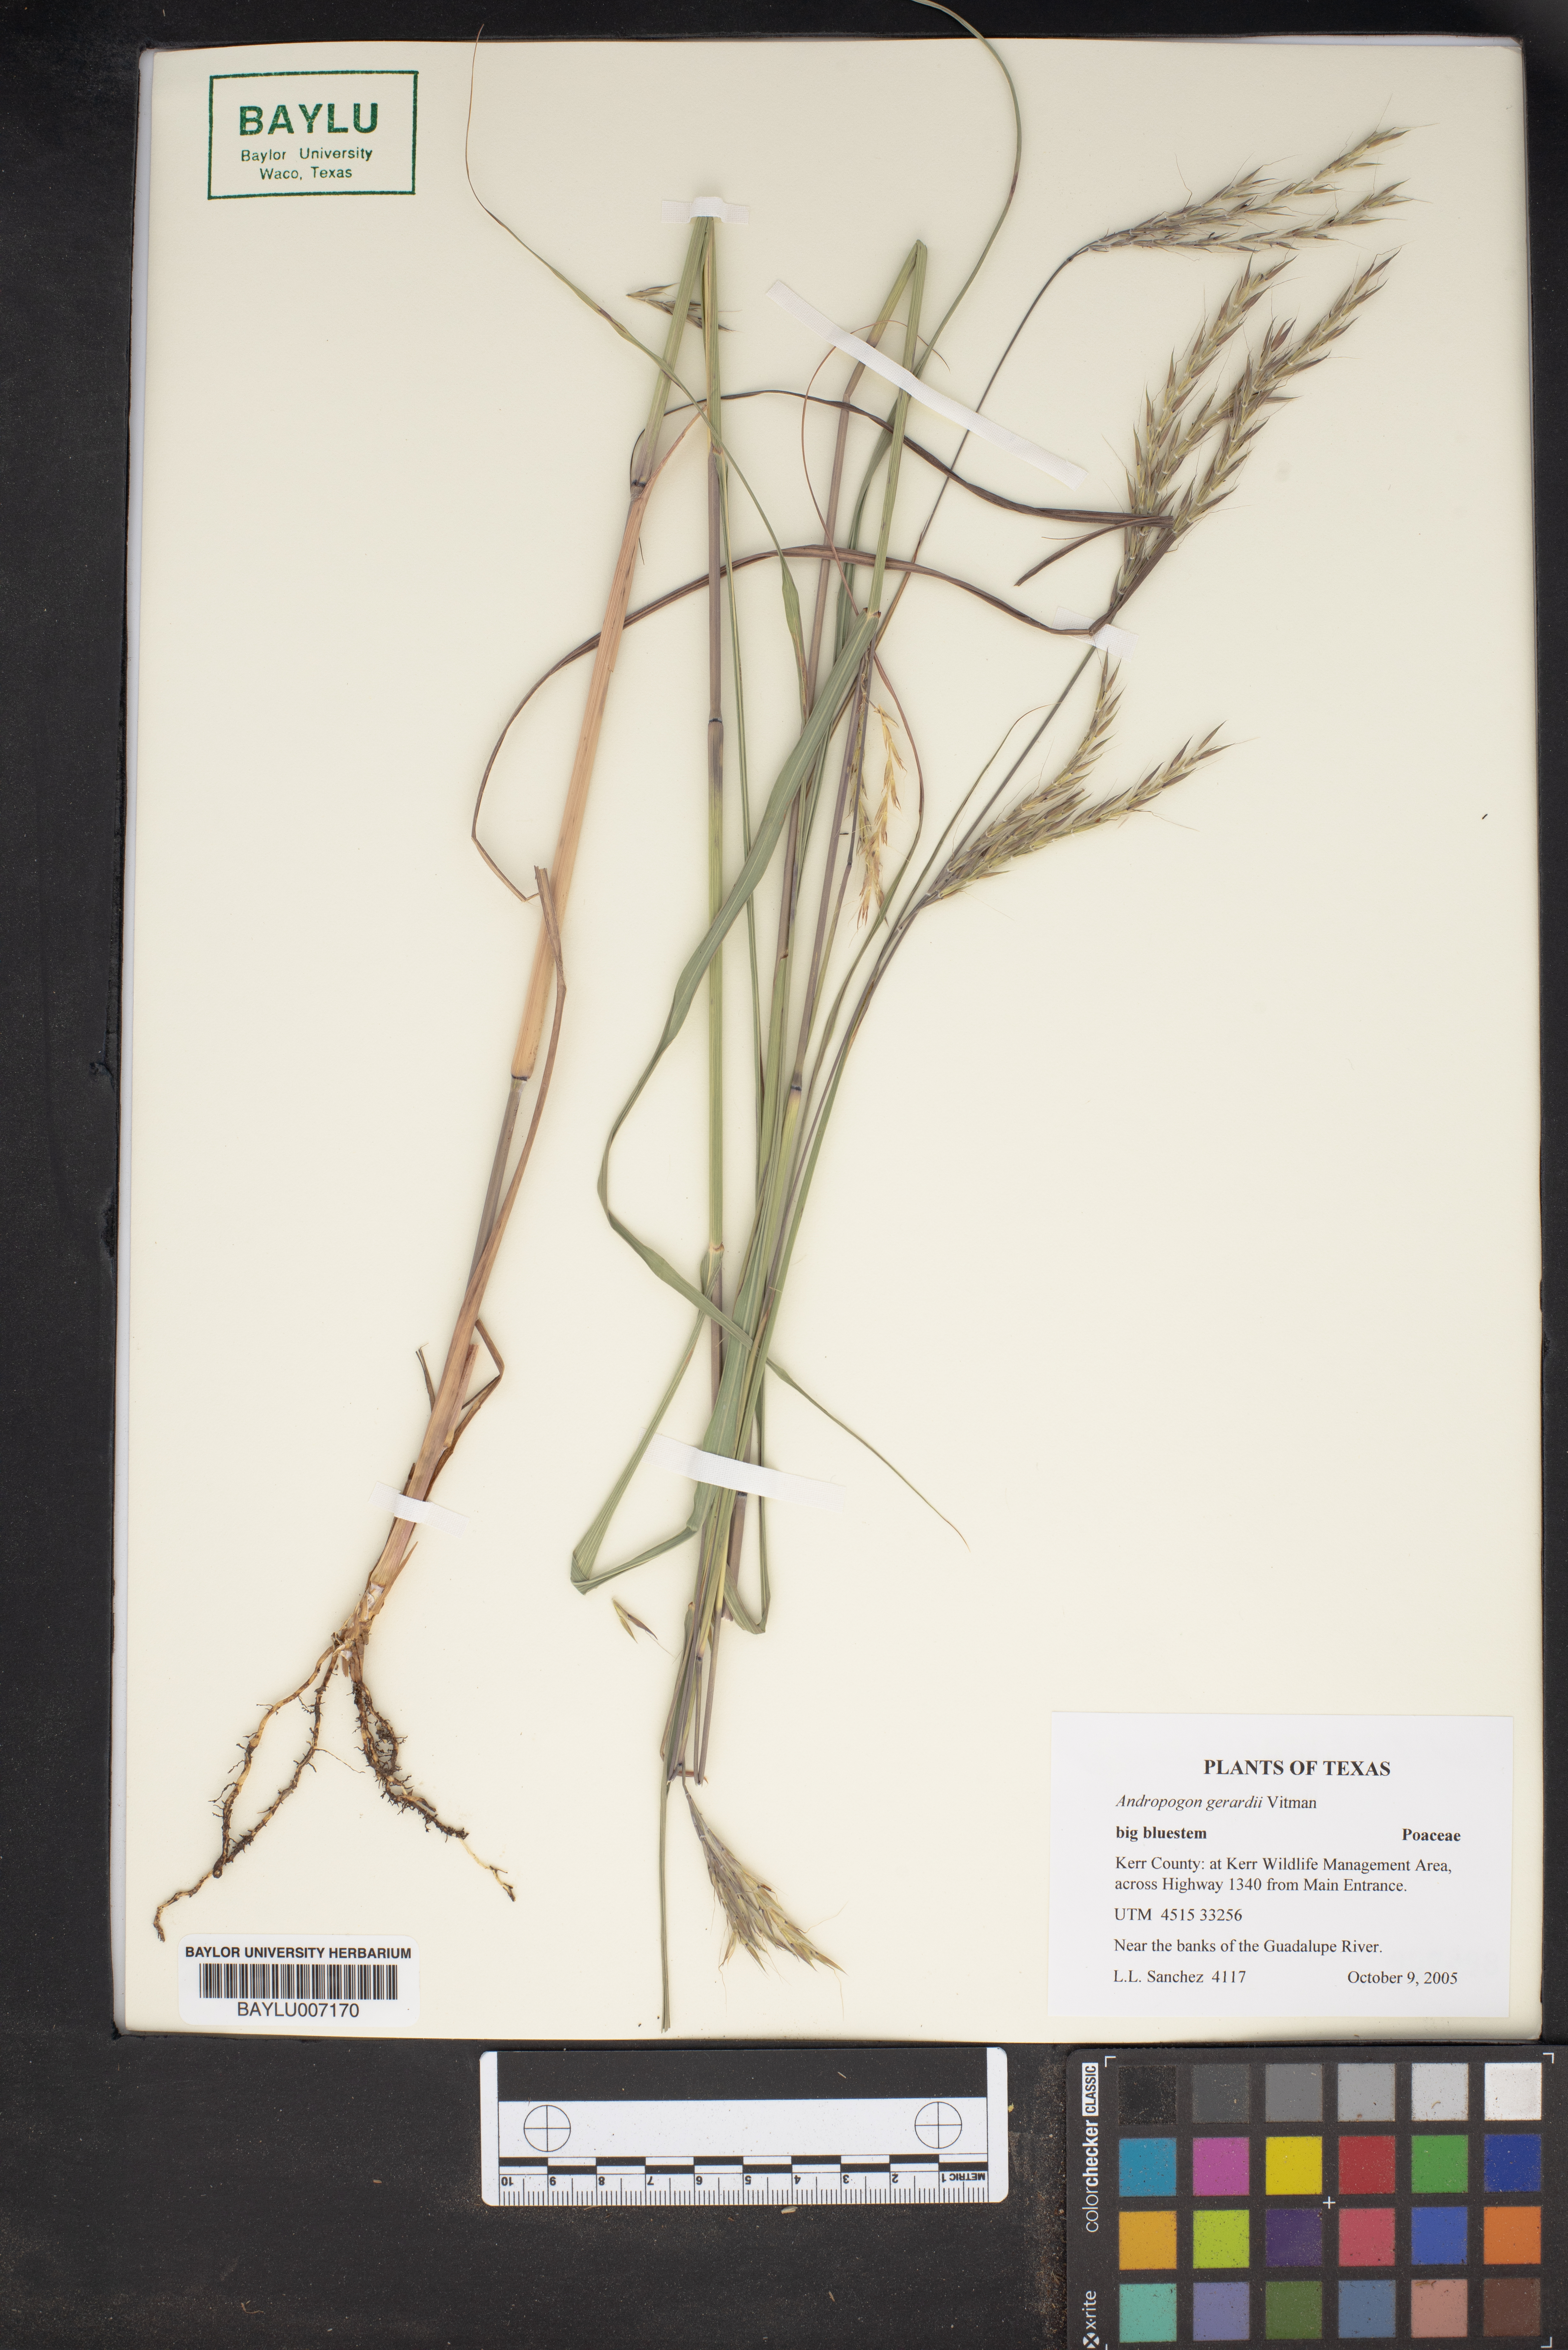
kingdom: Plantae
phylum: Tracheophyta
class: Liliopsida
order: Poales
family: Poaceae
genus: Andropogon
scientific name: Andropogon gerardi
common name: Big bluestem
